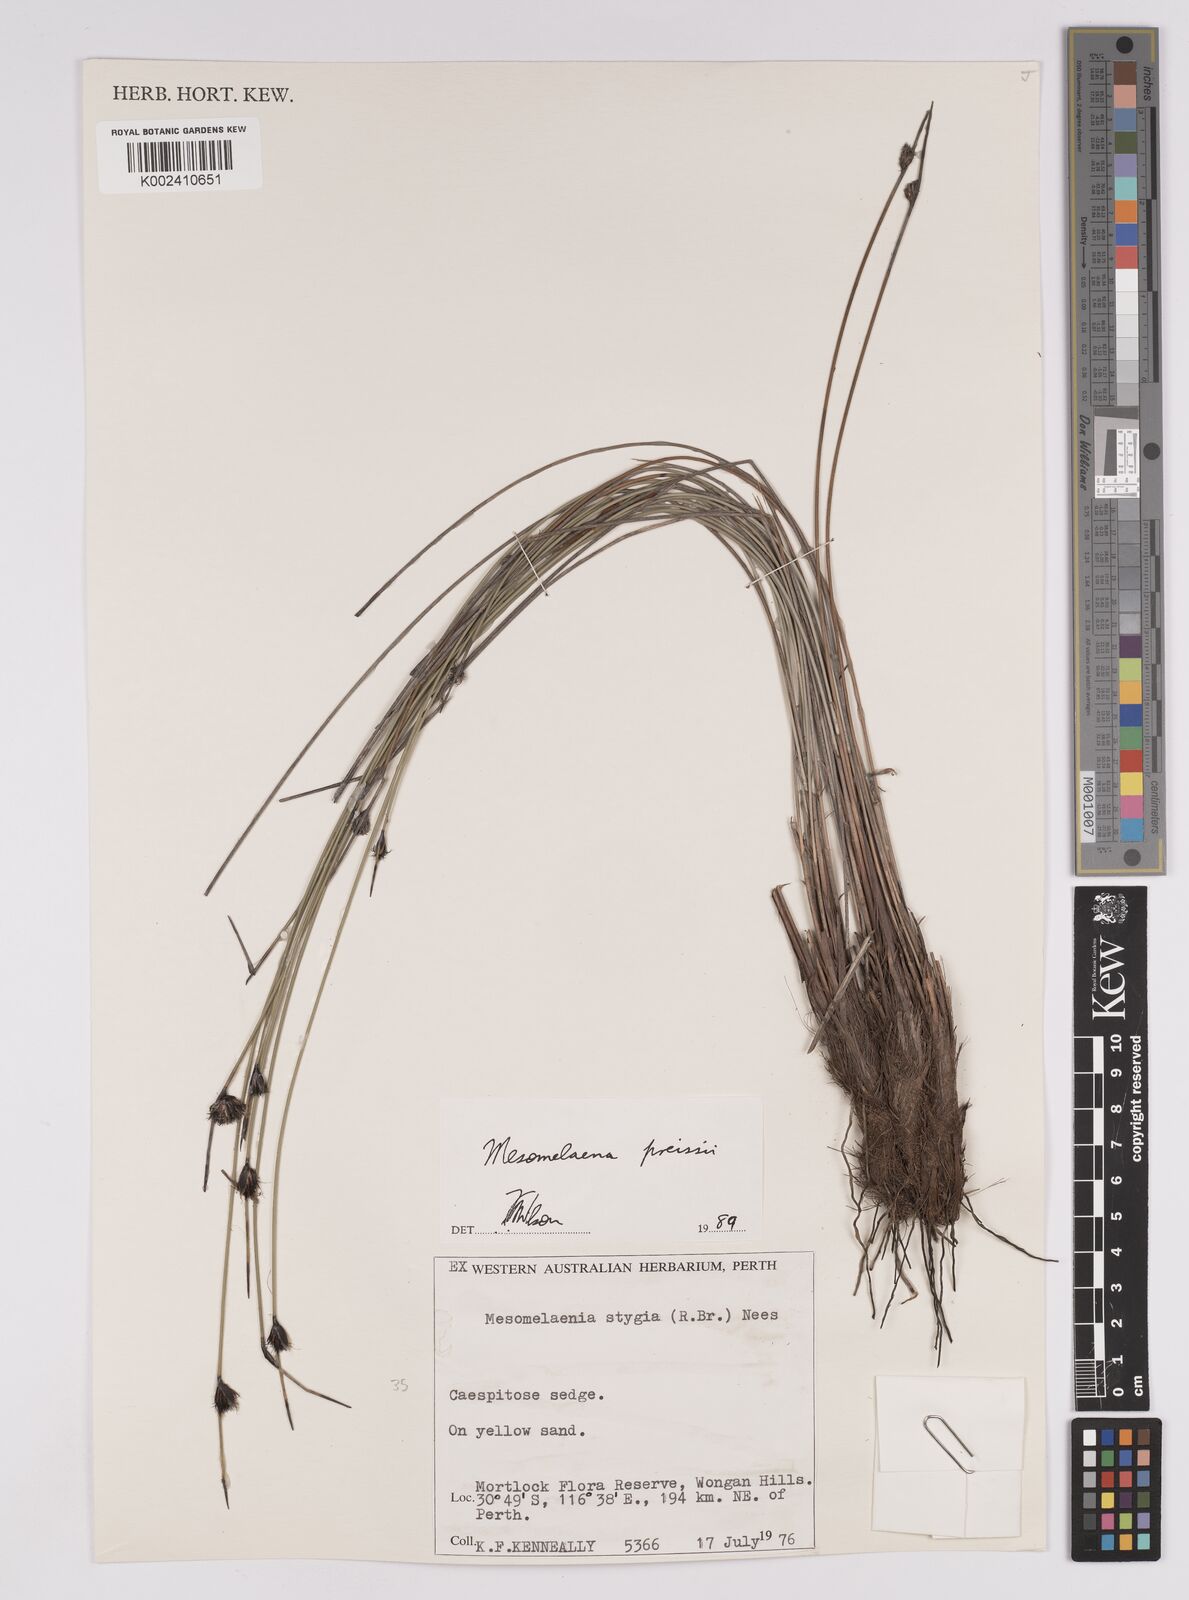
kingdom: Plantae
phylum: Tracheophyta
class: Liliopsida
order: Poales
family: Cyperaceae
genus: Mesomelaena
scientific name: Mesomelaena preissii
